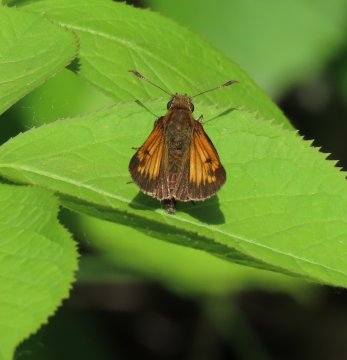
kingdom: Animalia
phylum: Arthropoda
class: Insecta
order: Lepidoptera
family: Hesperiidae
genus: Lon
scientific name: Lon hobomok
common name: Hobomok Skipper
